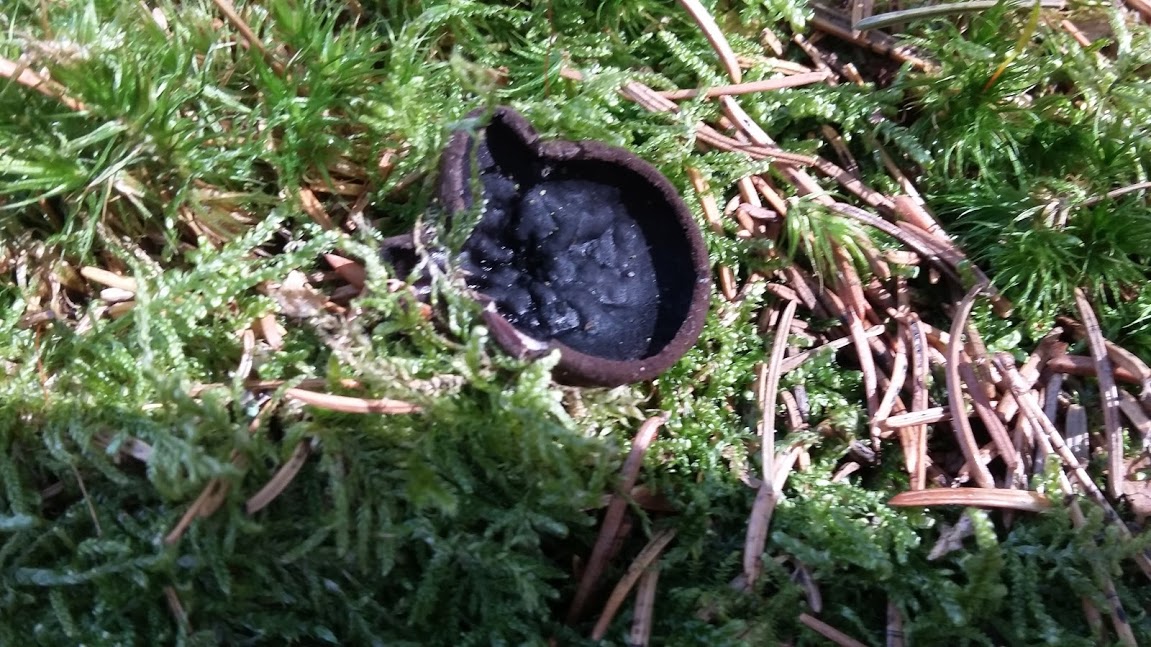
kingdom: Fungi
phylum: Ascomycota
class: Pezizomycetes
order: Pezizales
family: Sarcosomataceae
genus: Pseudoplectania
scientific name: Pseudoplectania nigrella
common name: almindelig sortbæger
